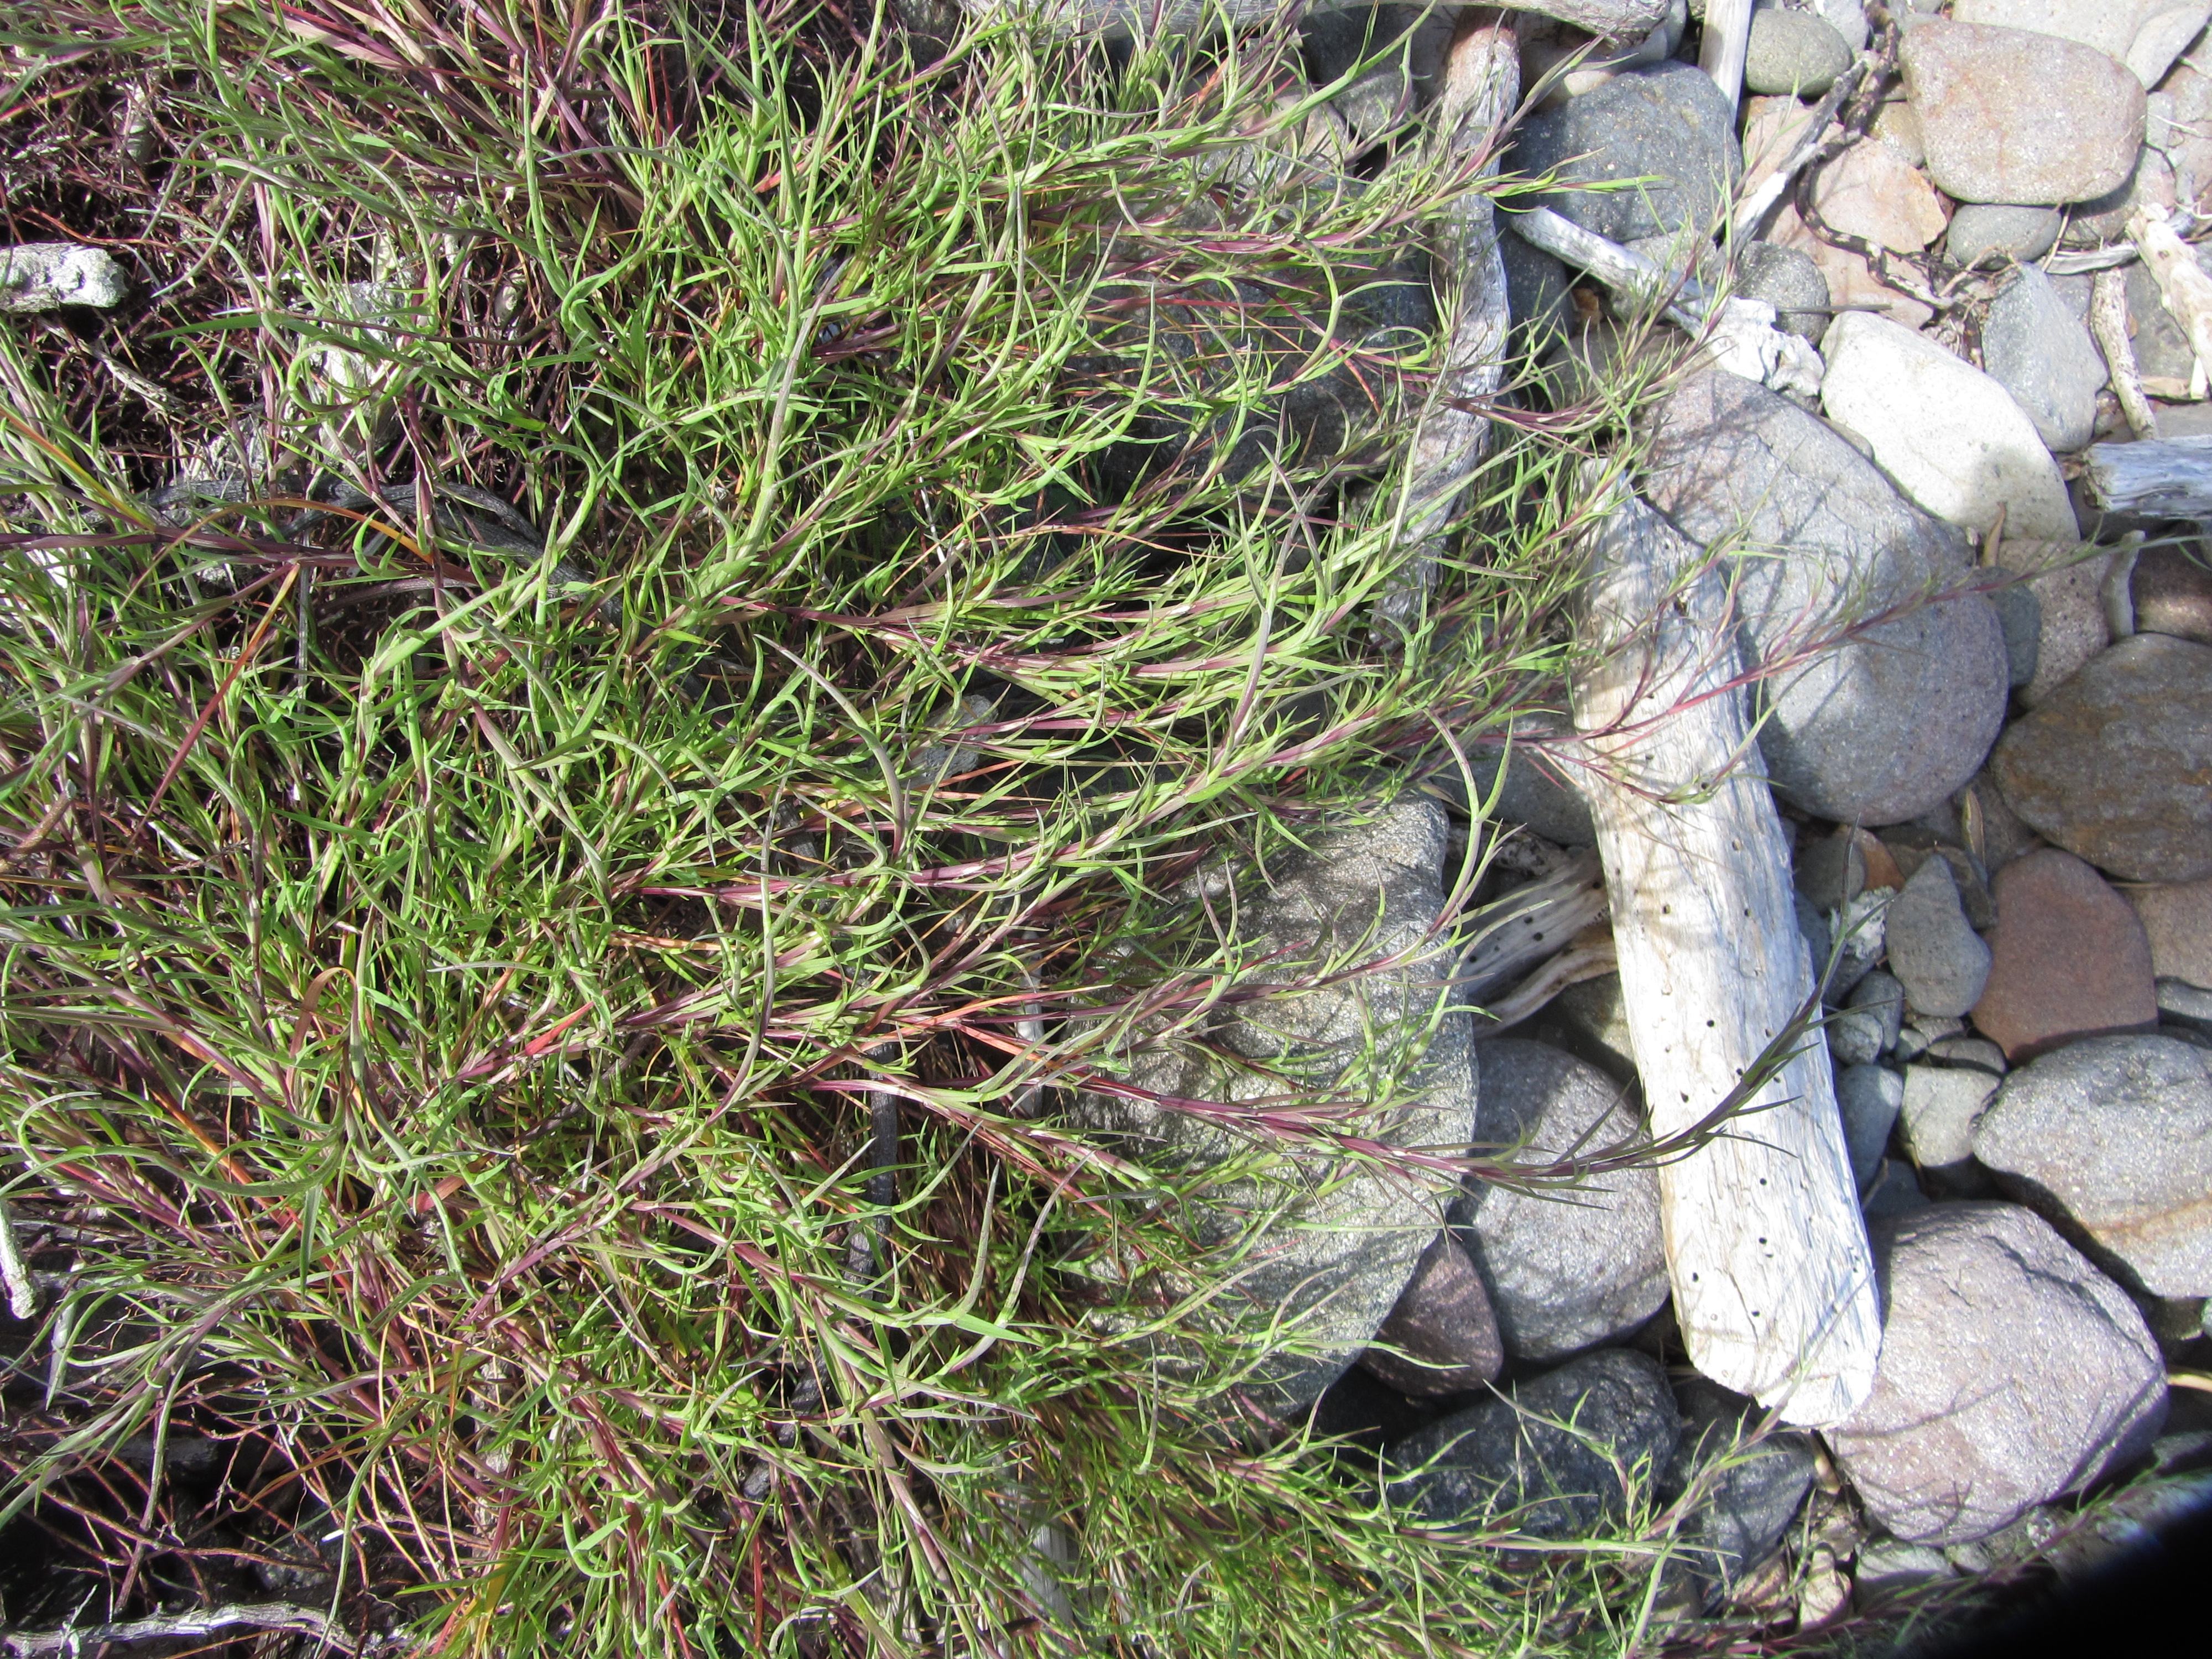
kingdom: Plantae
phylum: Tracheophyta
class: Liliopsida
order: Poales
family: Poaceae
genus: Parapholis
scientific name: Parapholis incurva
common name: Curved sicklegrass
